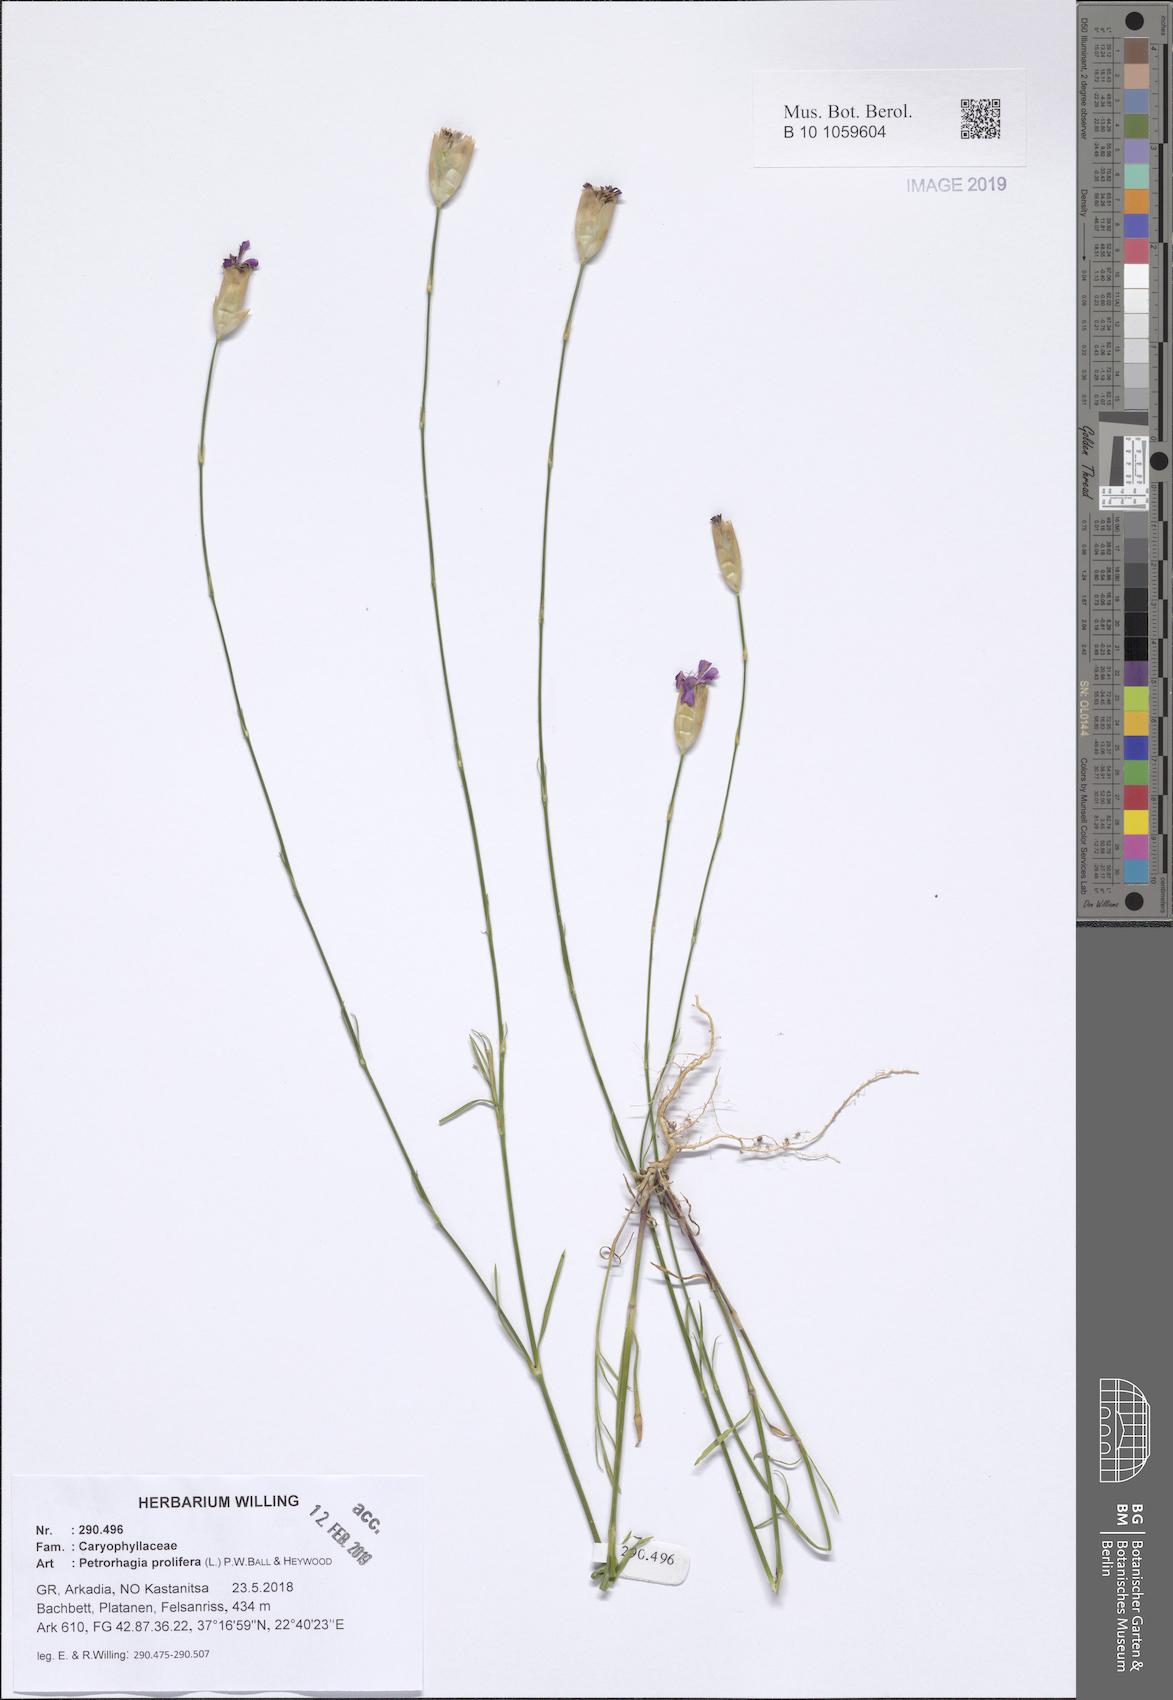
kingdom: Plantae
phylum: Tracheophyta
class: Magnoliopsida
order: Caryophyllales
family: Caryophyllaceae
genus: Petrorhagia
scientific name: Petrorhagia prolifera
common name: Proliferous pink
